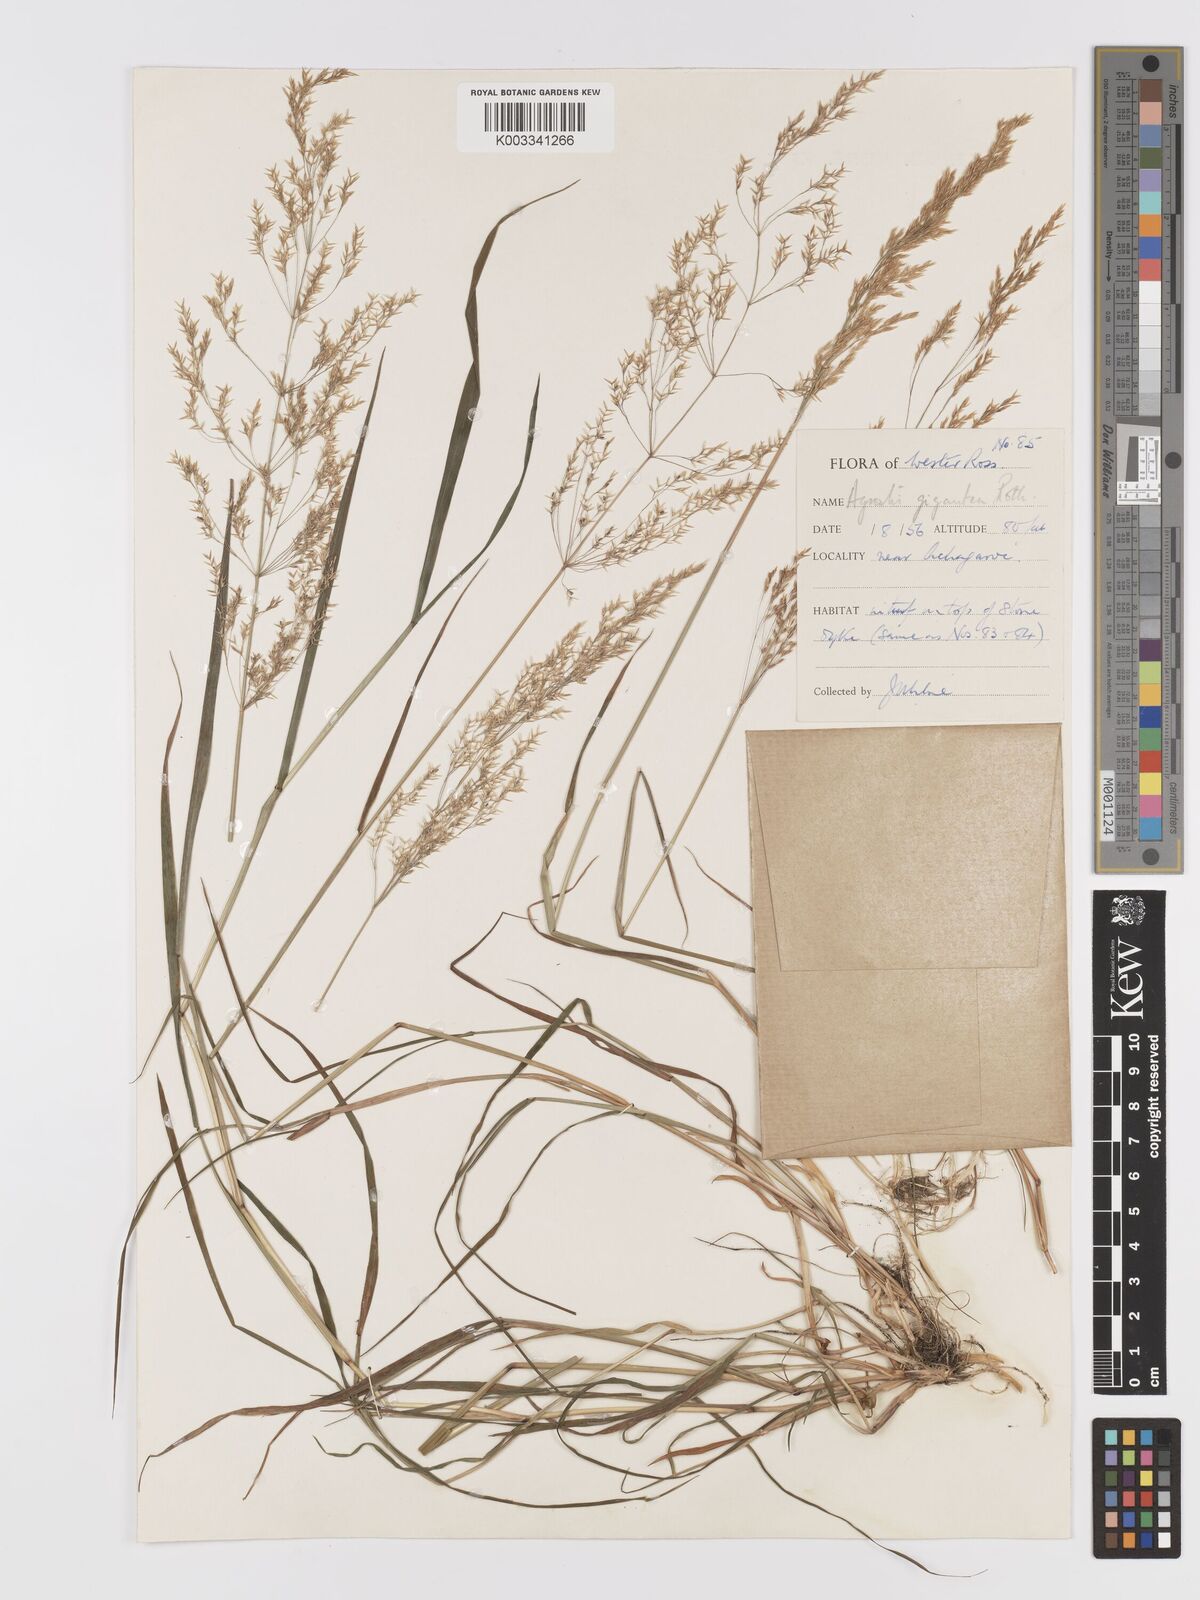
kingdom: Plantae
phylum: Tracheophyta
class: Liliopsida
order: Poales
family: Poaceae
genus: Agrostis
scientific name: Agrostis gigantea
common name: Black bent
